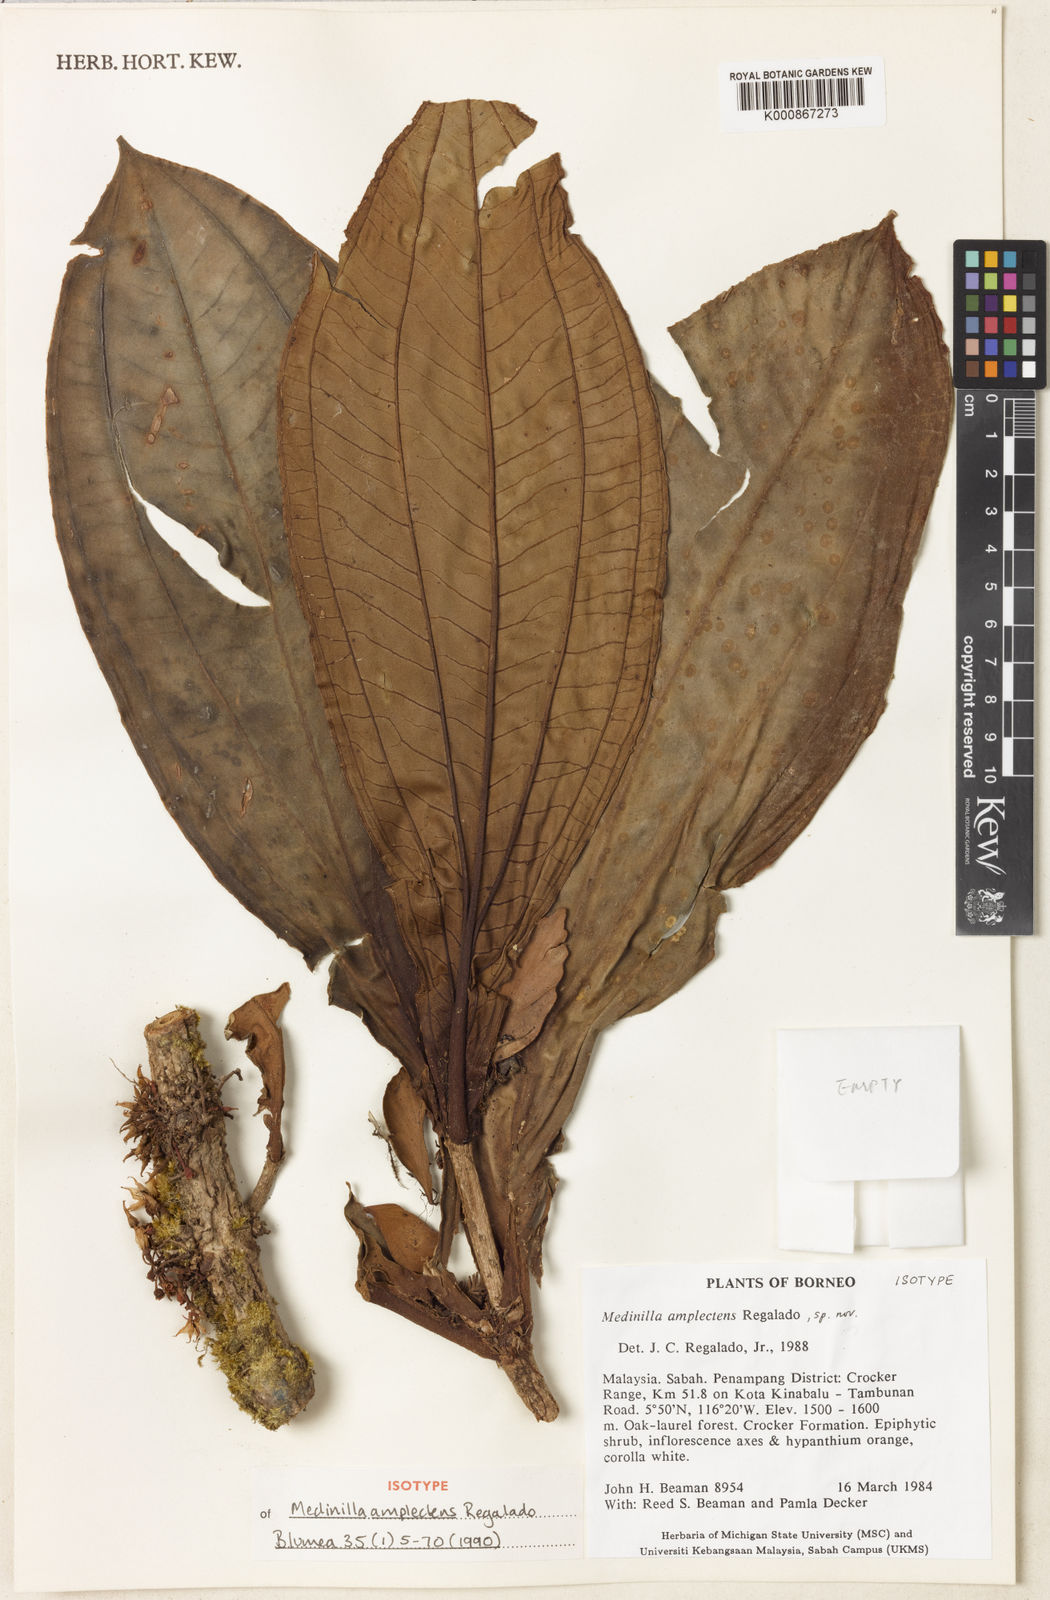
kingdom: Plantae
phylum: Tracheophyta
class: Magnoliopsida
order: Myrtales
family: Melastomataceae
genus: Medinilla
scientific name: Medinilla amplectens
